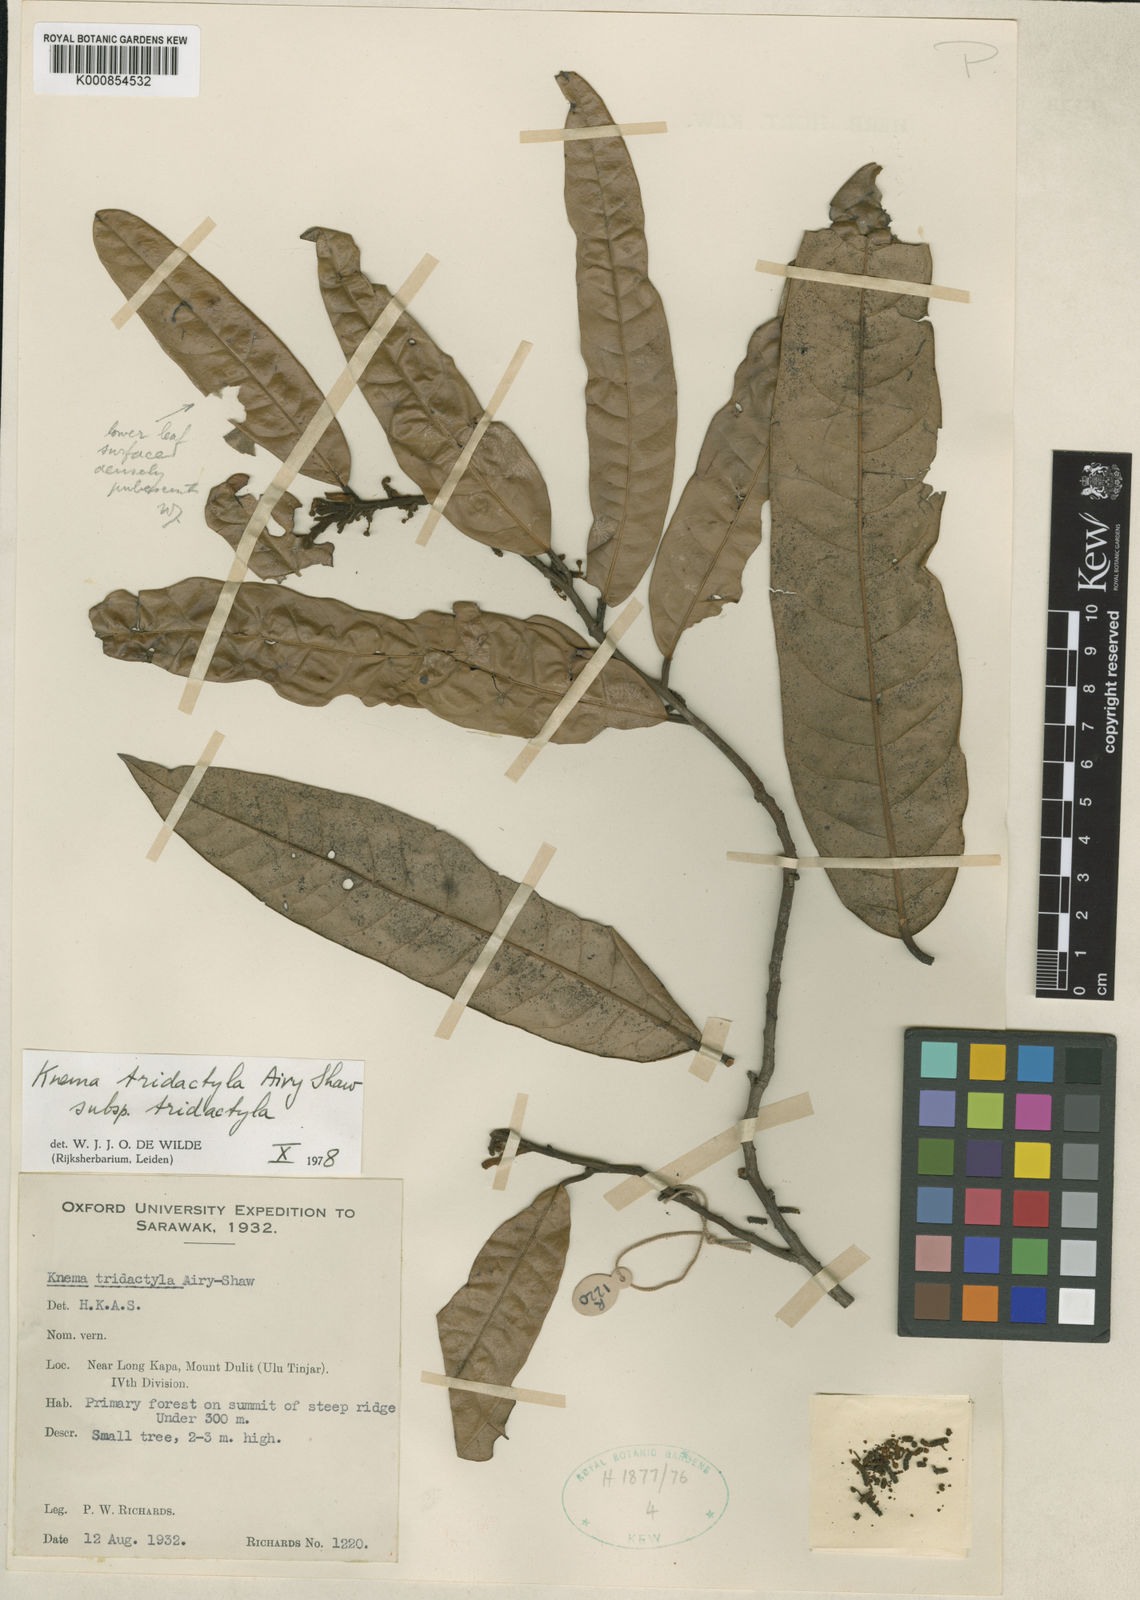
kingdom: Plantae
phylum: Tracheophyta
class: Magnoliopsida
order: Magnoliales
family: Myristicaceae
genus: Knema
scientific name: Knema tridactyla
